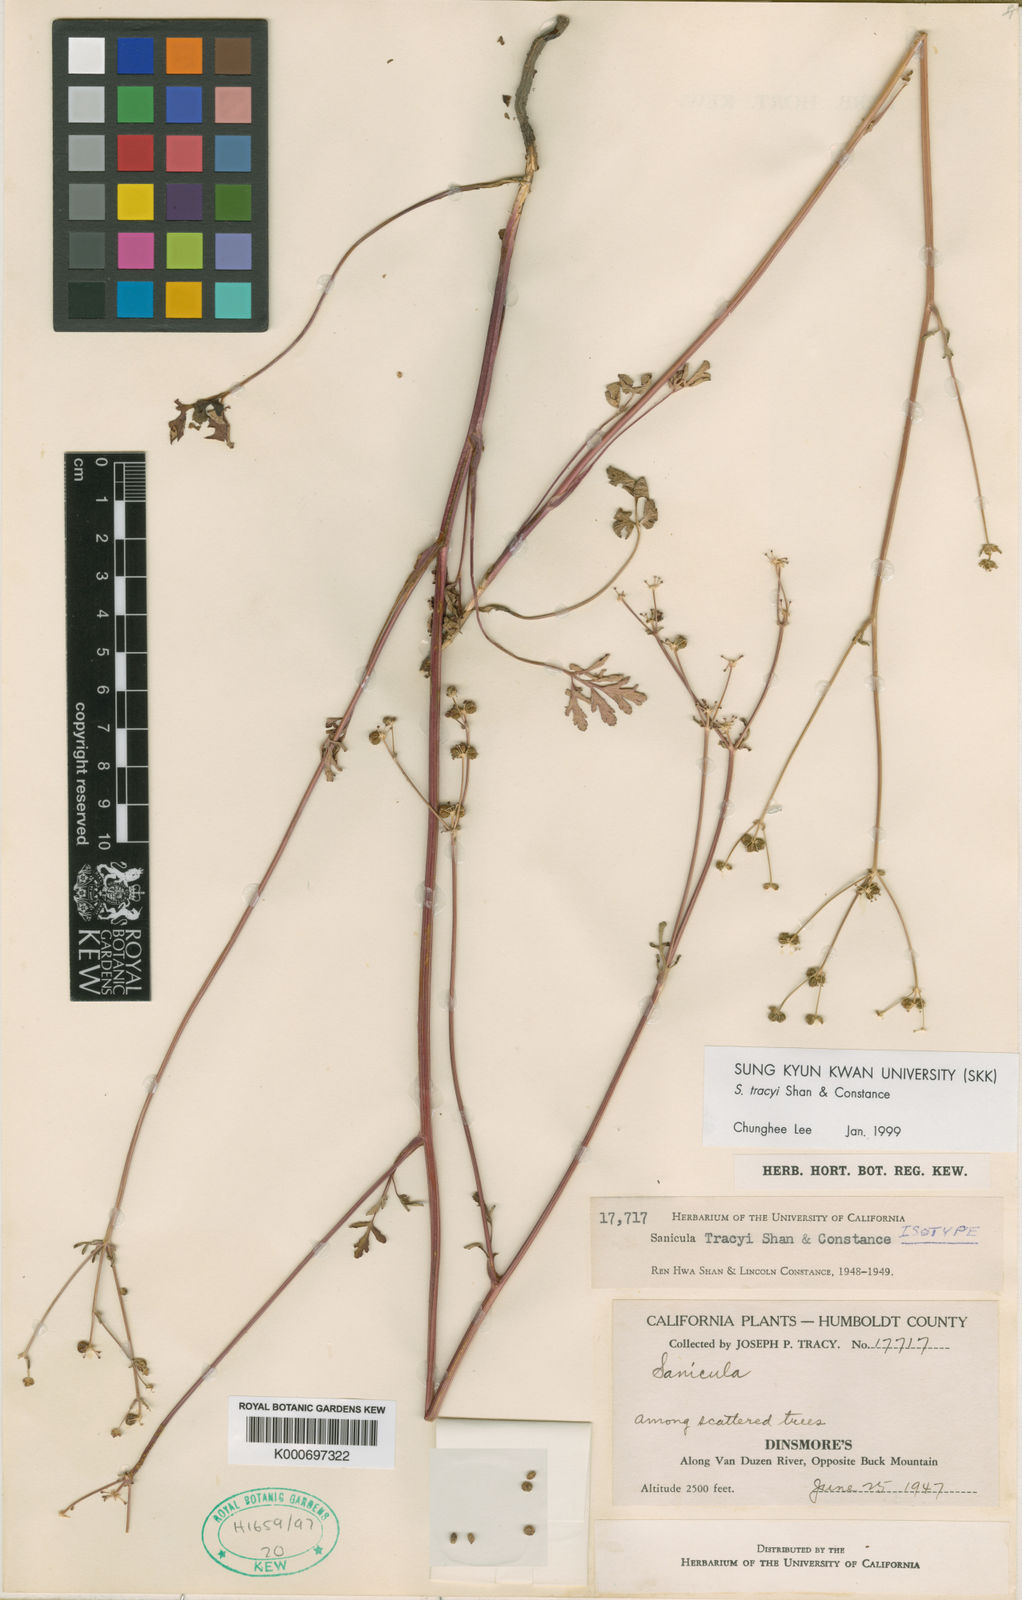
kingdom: Plantae
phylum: Tracheophyta
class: Magnoliopsida
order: Apiales
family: Apiaceae
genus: Sanicula
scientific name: Sanicula tracyi
